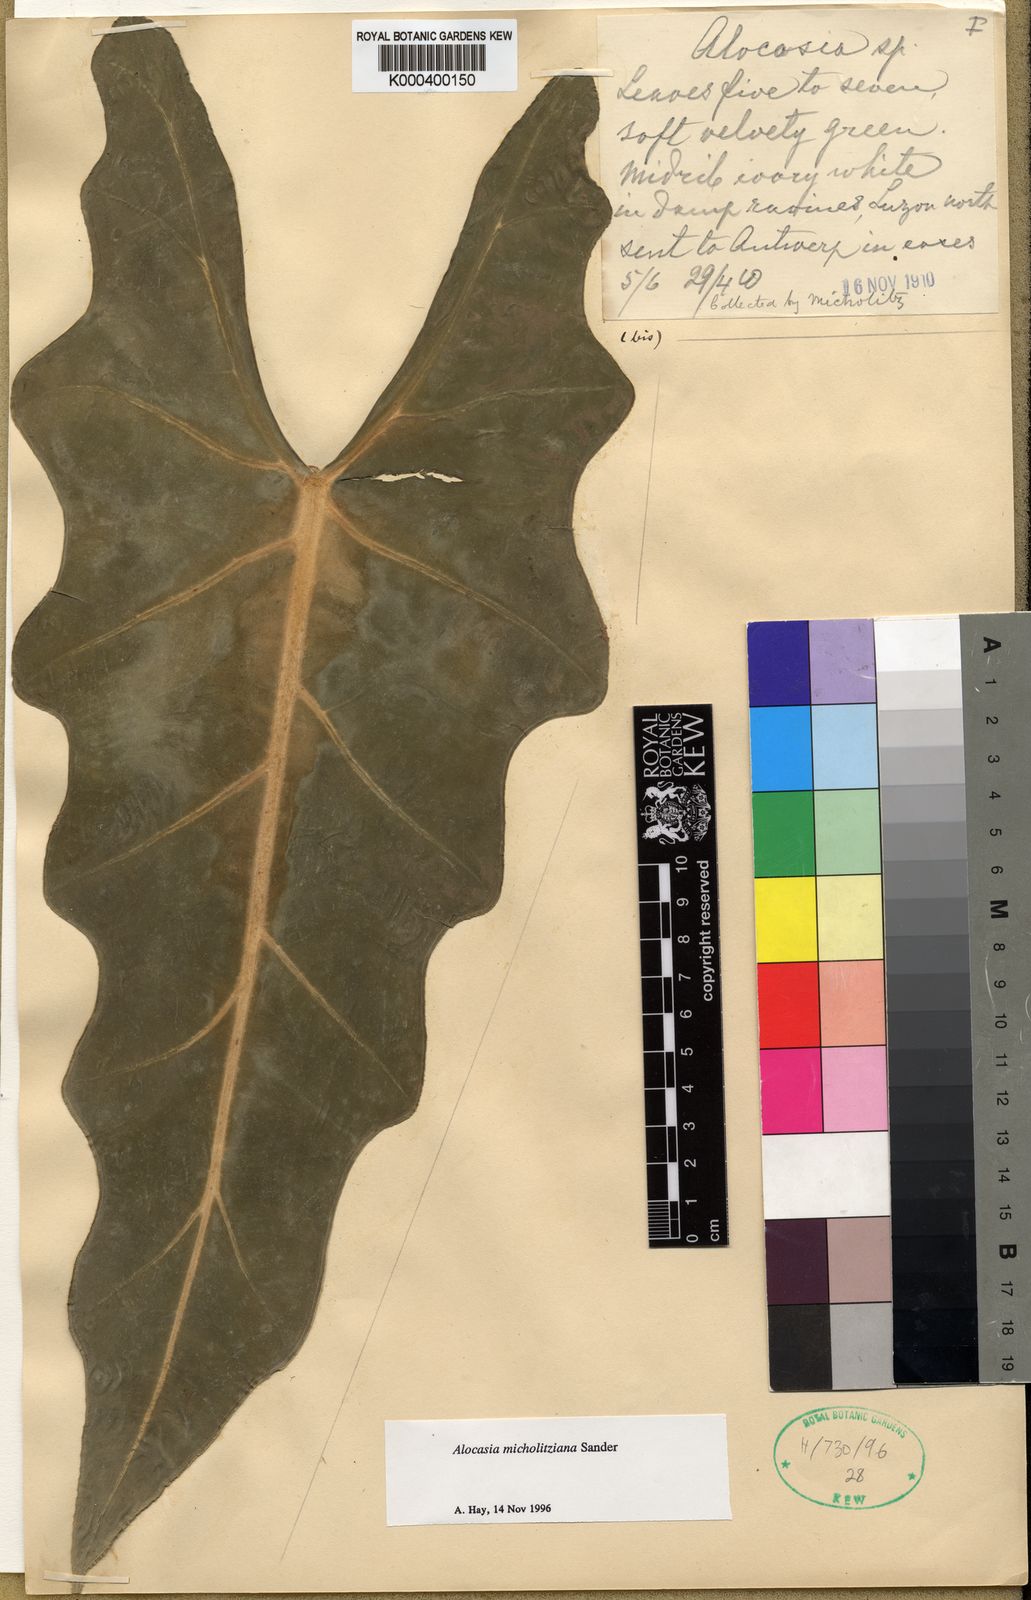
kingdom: Plantae
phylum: Tracheophyta
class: Liliopsida
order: Alismatales
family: Araceae
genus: Alocasia
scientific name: Alocasia micholitziana
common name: Green-velvet alocasia
